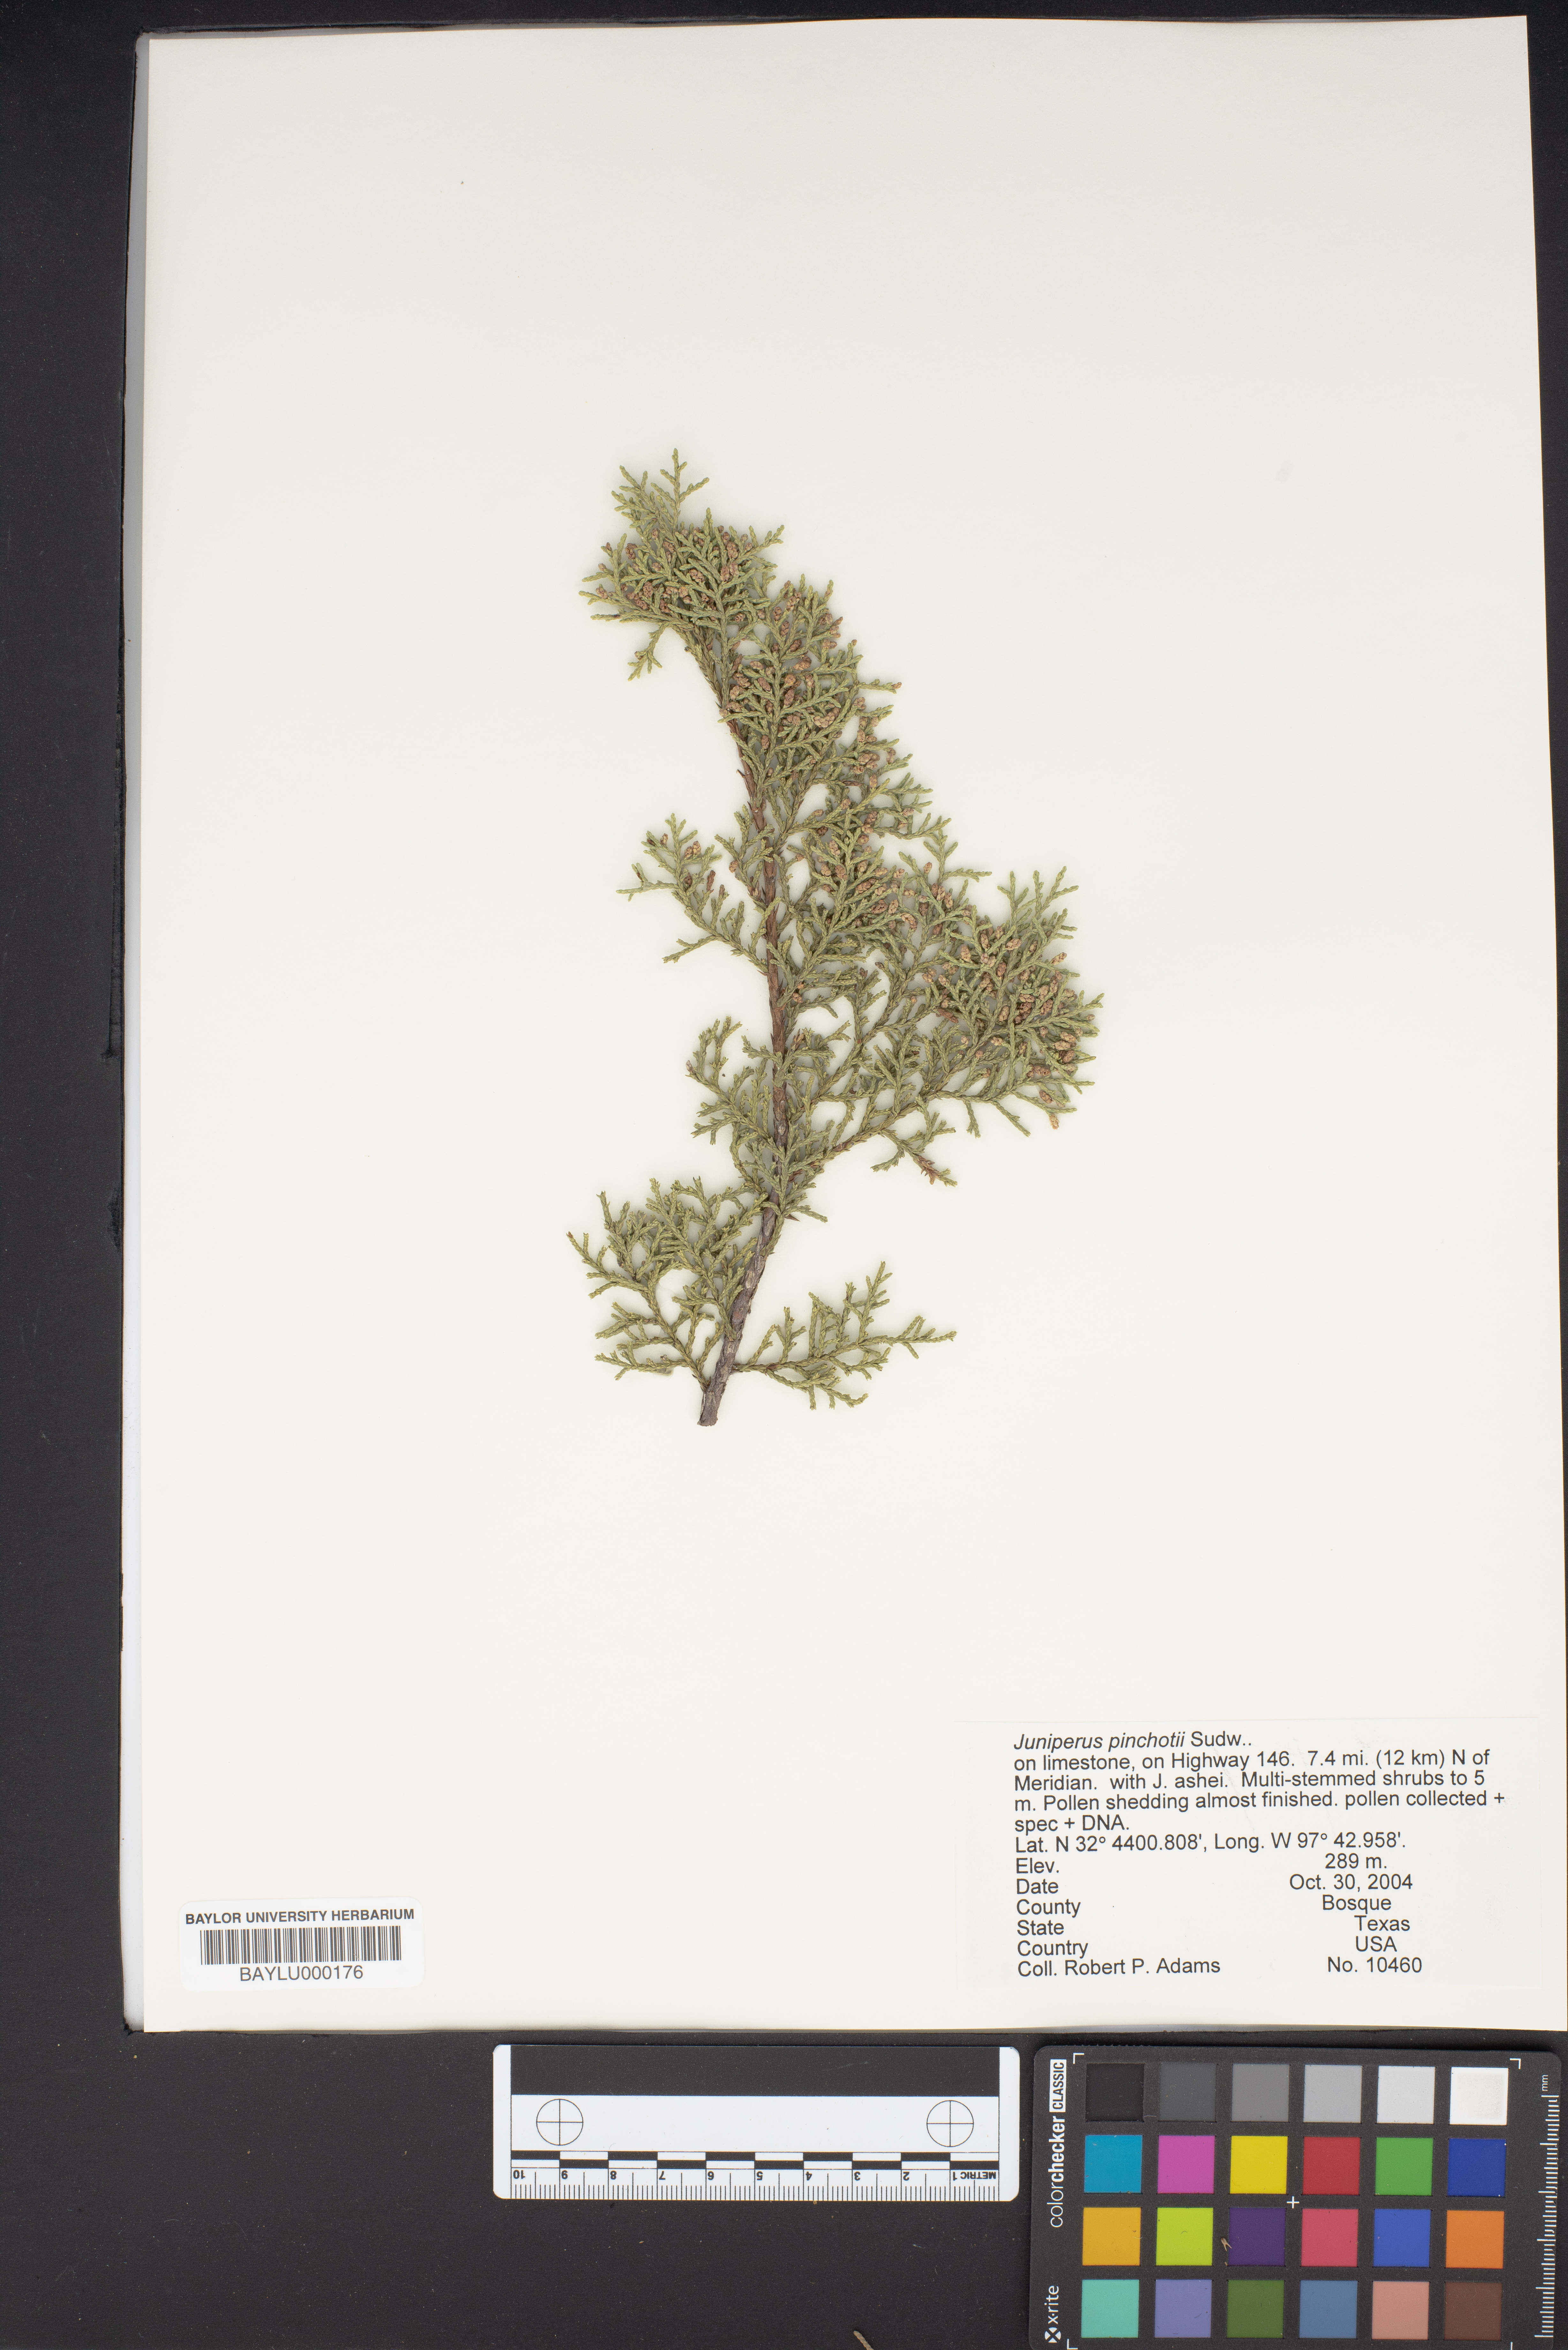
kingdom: Plantae
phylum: Tracheophyta
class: Pinopsida
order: Pinales
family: Cupressaceae
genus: Juniperus
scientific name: Juniperus pinchotii
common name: Pinchot juniper
